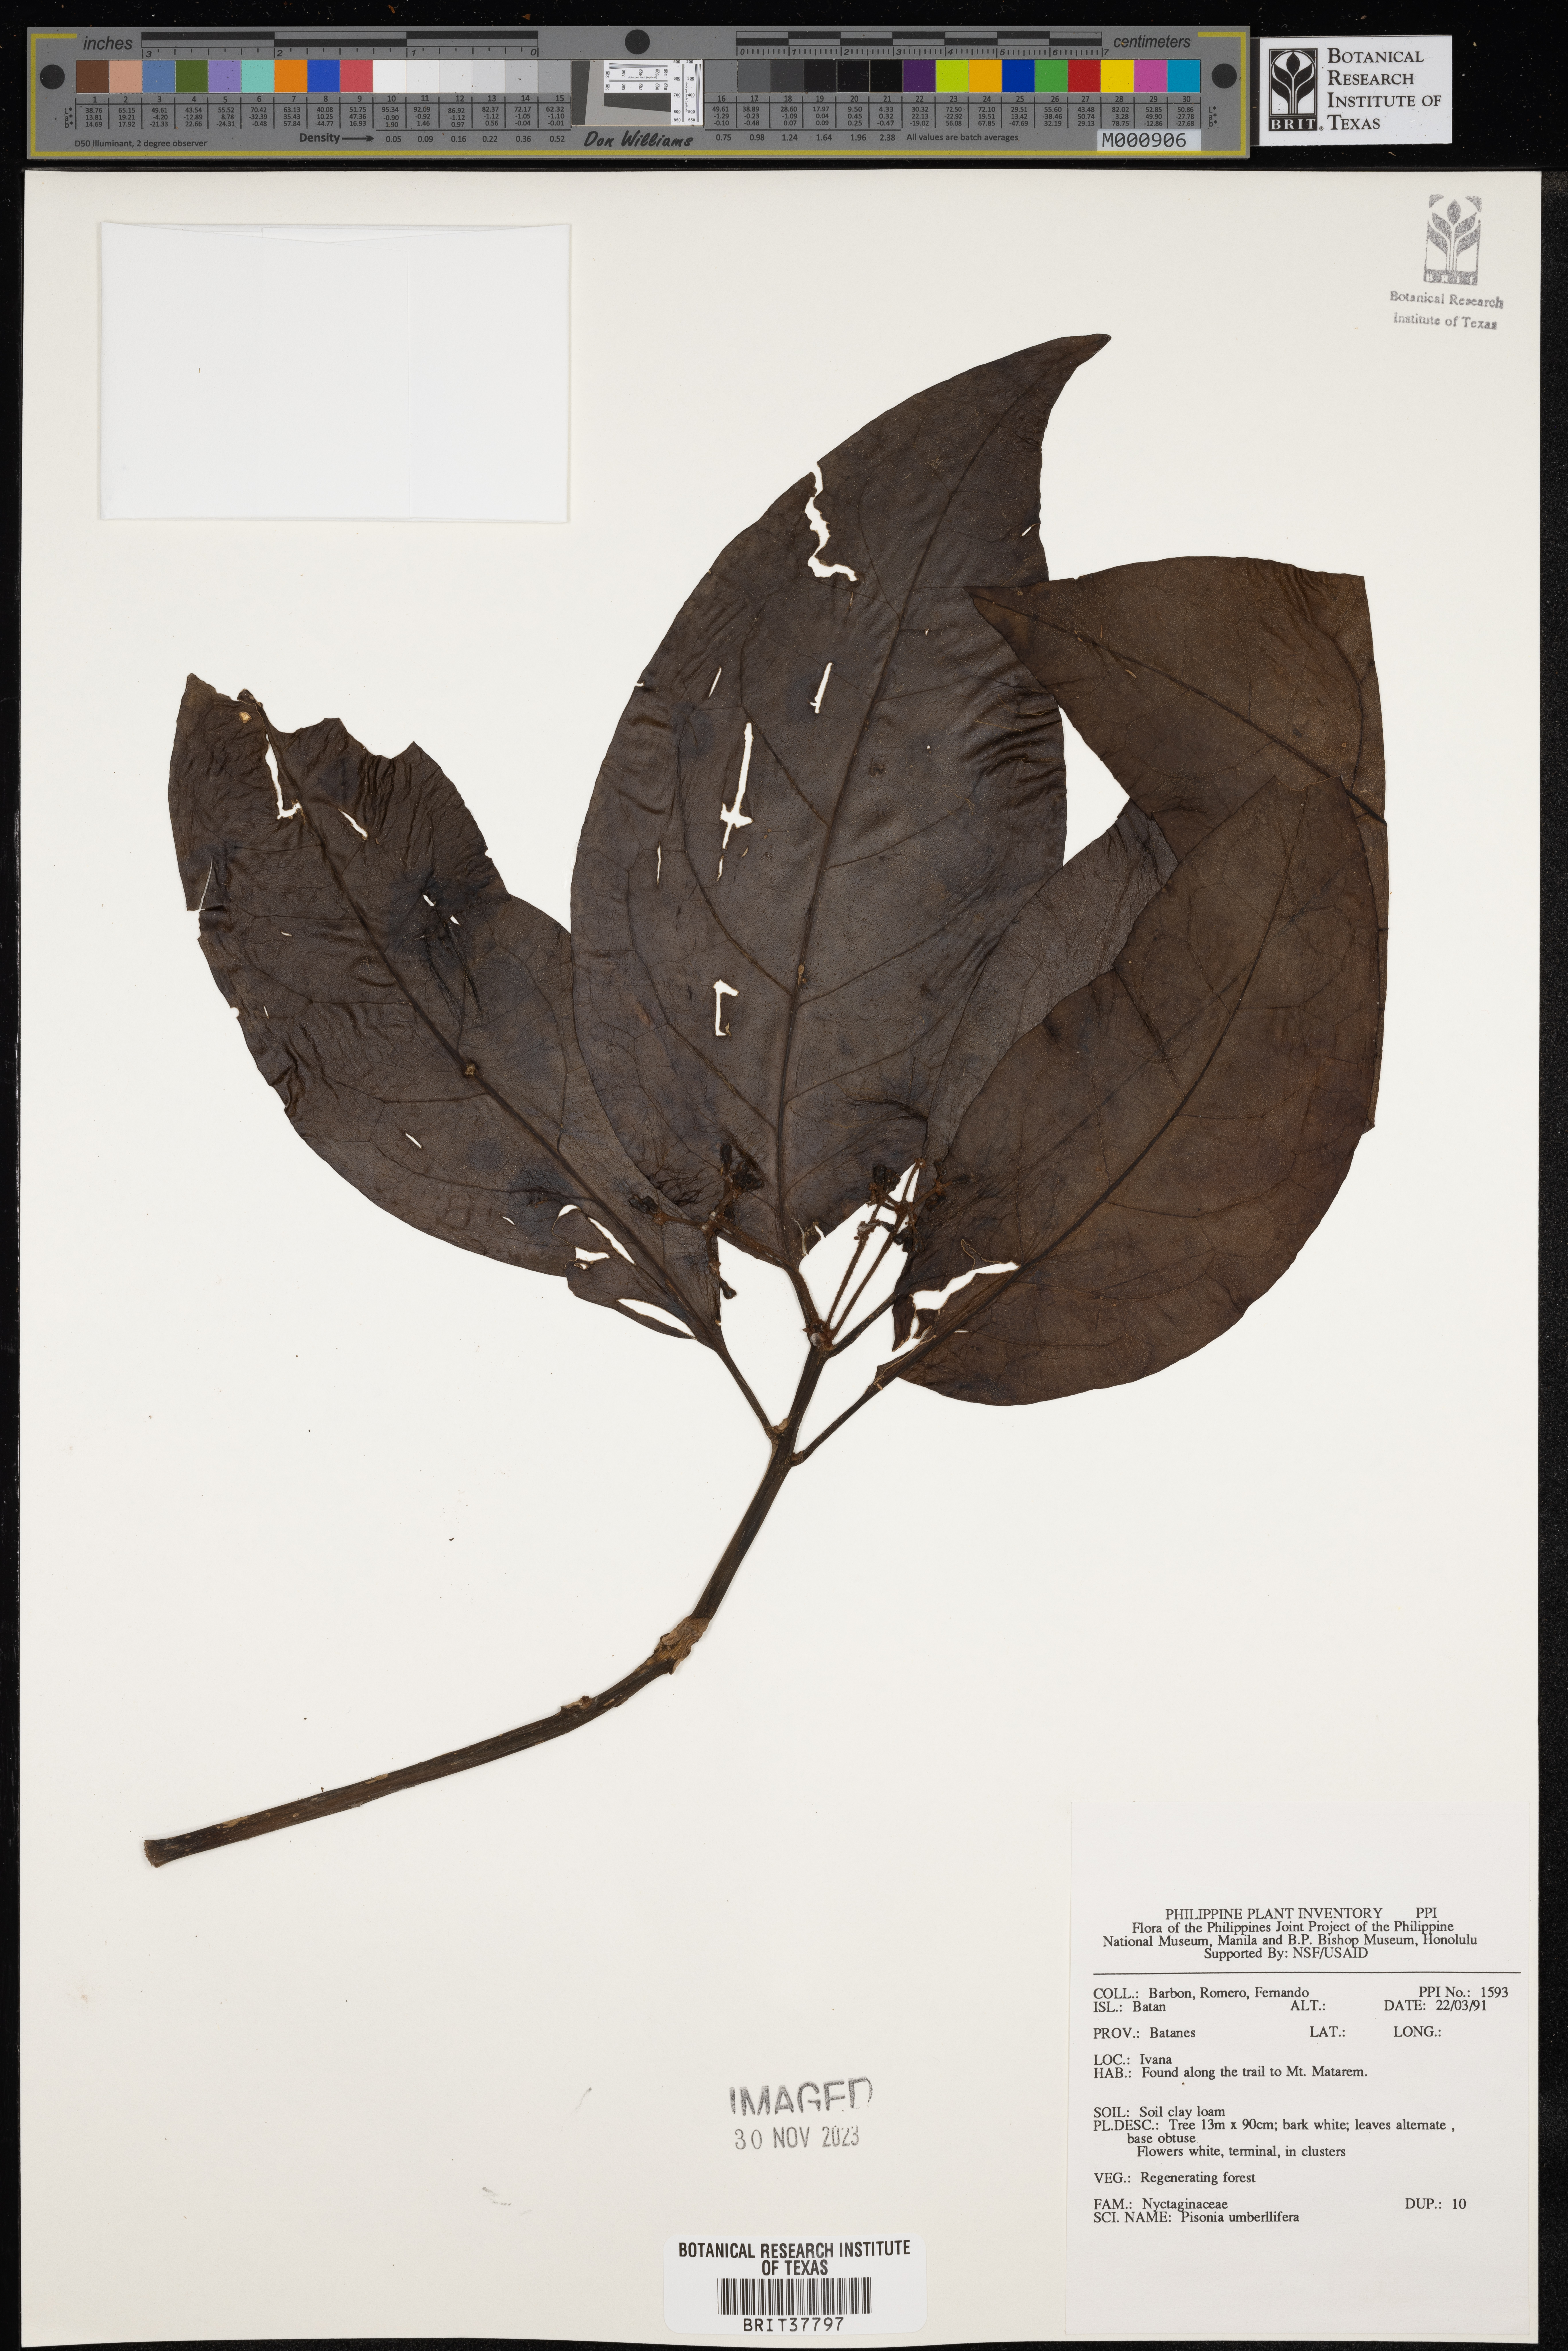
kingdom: Plantae
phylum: Tracheophyta
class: Magnoliopsida
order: Caryophyllales
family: Nyctaginaceae
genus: Ceodes
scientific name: Ceodes umbellifera
